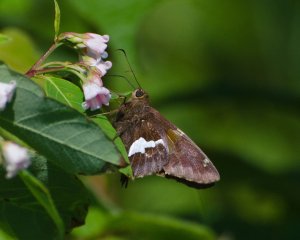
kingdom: Animalia
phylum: Arthropoda
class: Insecta
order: Lepidoptera
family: Hesperiidae
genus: Epargyreus
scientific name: Epargyreus clarus
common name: Silver-spotted Skipper
